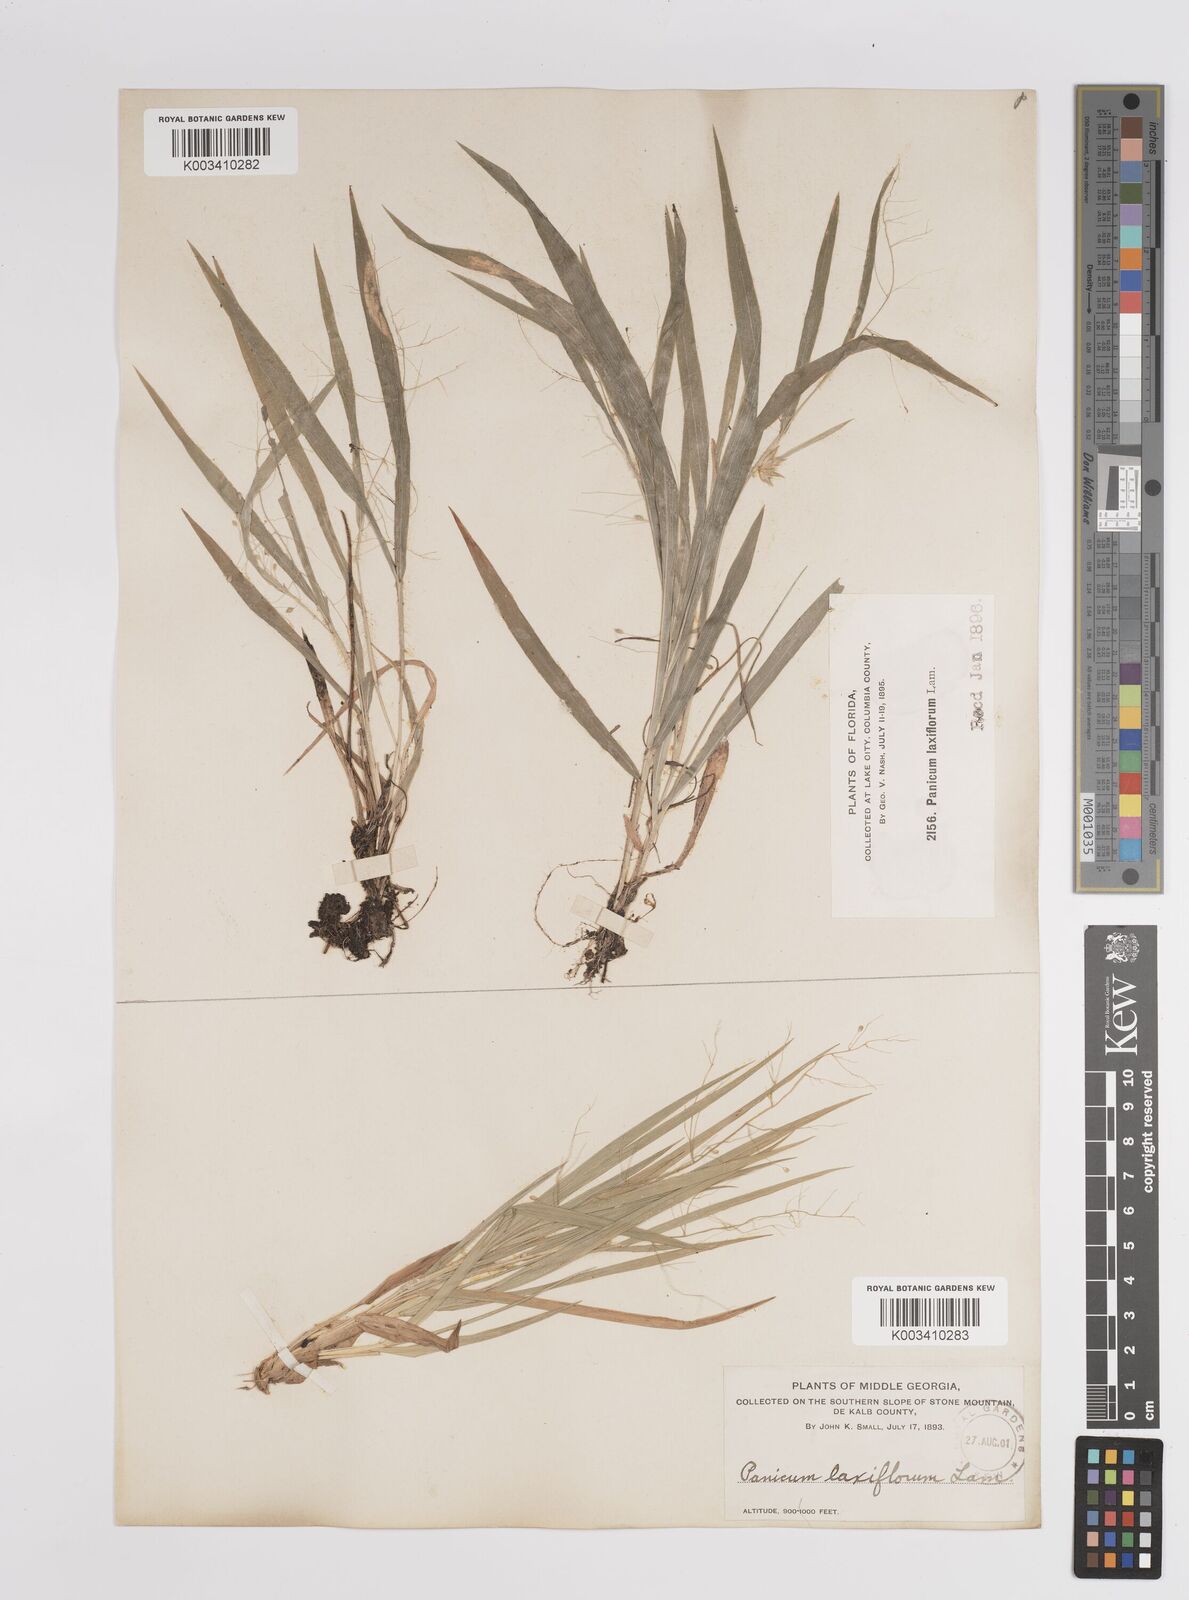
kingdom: Plantae
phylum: Tracheophyta
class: Liliopsida
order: Poales
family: Poaceae
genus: Dichanthelium
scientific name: Dichanthelium laxiflorum
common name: Soft-tuft panic grass
